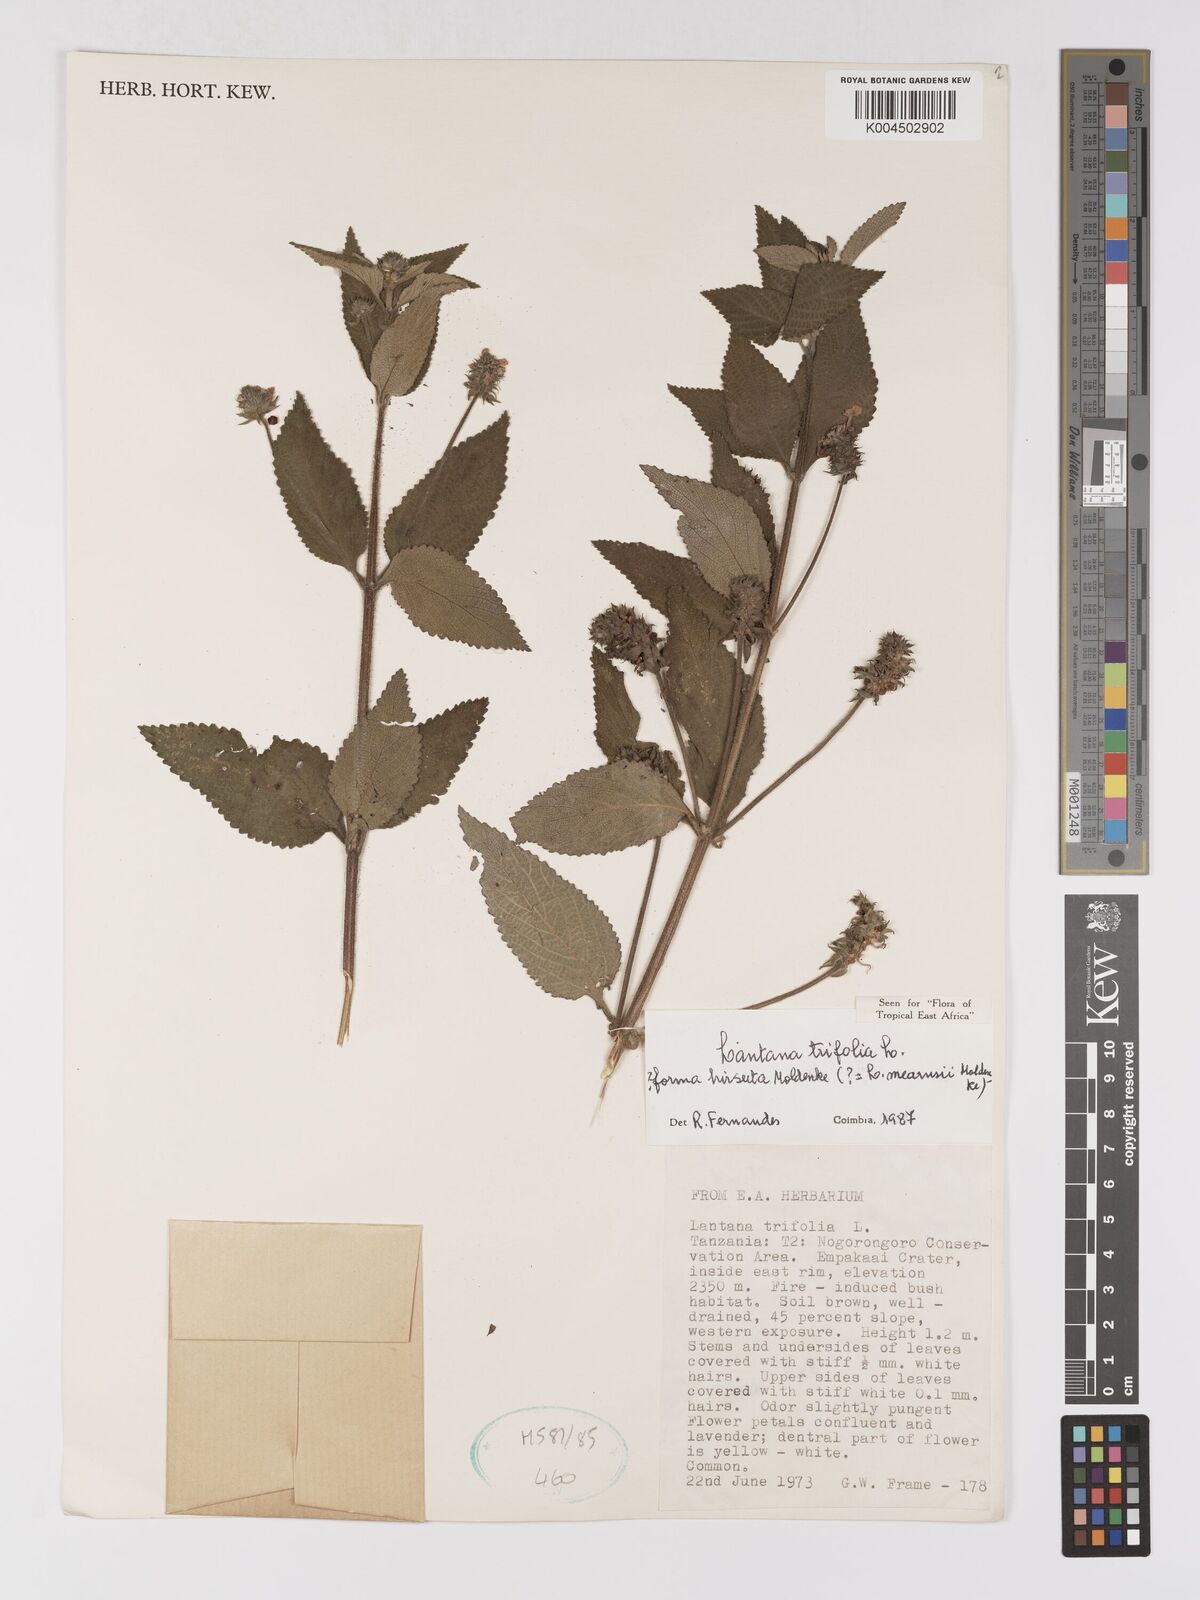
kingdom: Plantae
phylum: Tracheophyta
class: Magnoliopsida
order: Lamiales
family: Verbenaceae
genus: Lantana
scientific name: Lantana trifolia
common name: Sweet-sage
